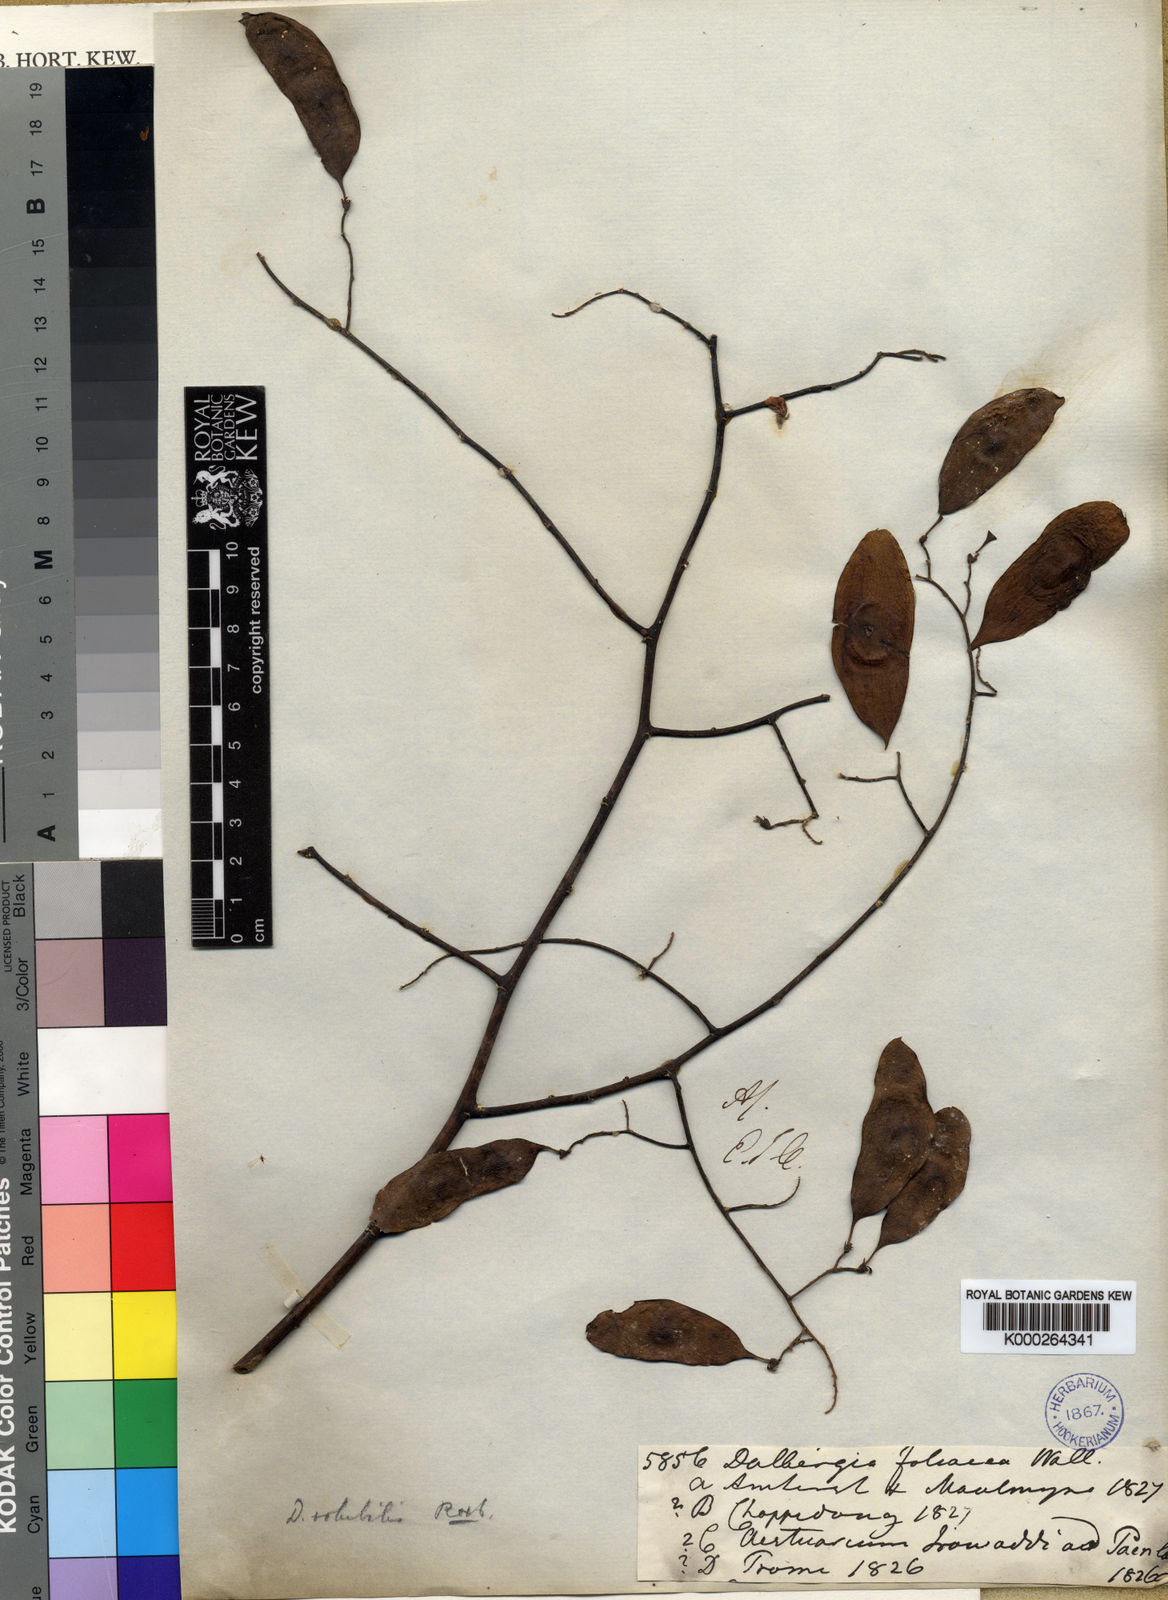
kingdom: Plantae
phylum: Tracheophyta
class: Magnoliopsida
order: Fabales
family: Fabaceae
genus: Dalbergia
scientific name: Dalbergia volubilis
